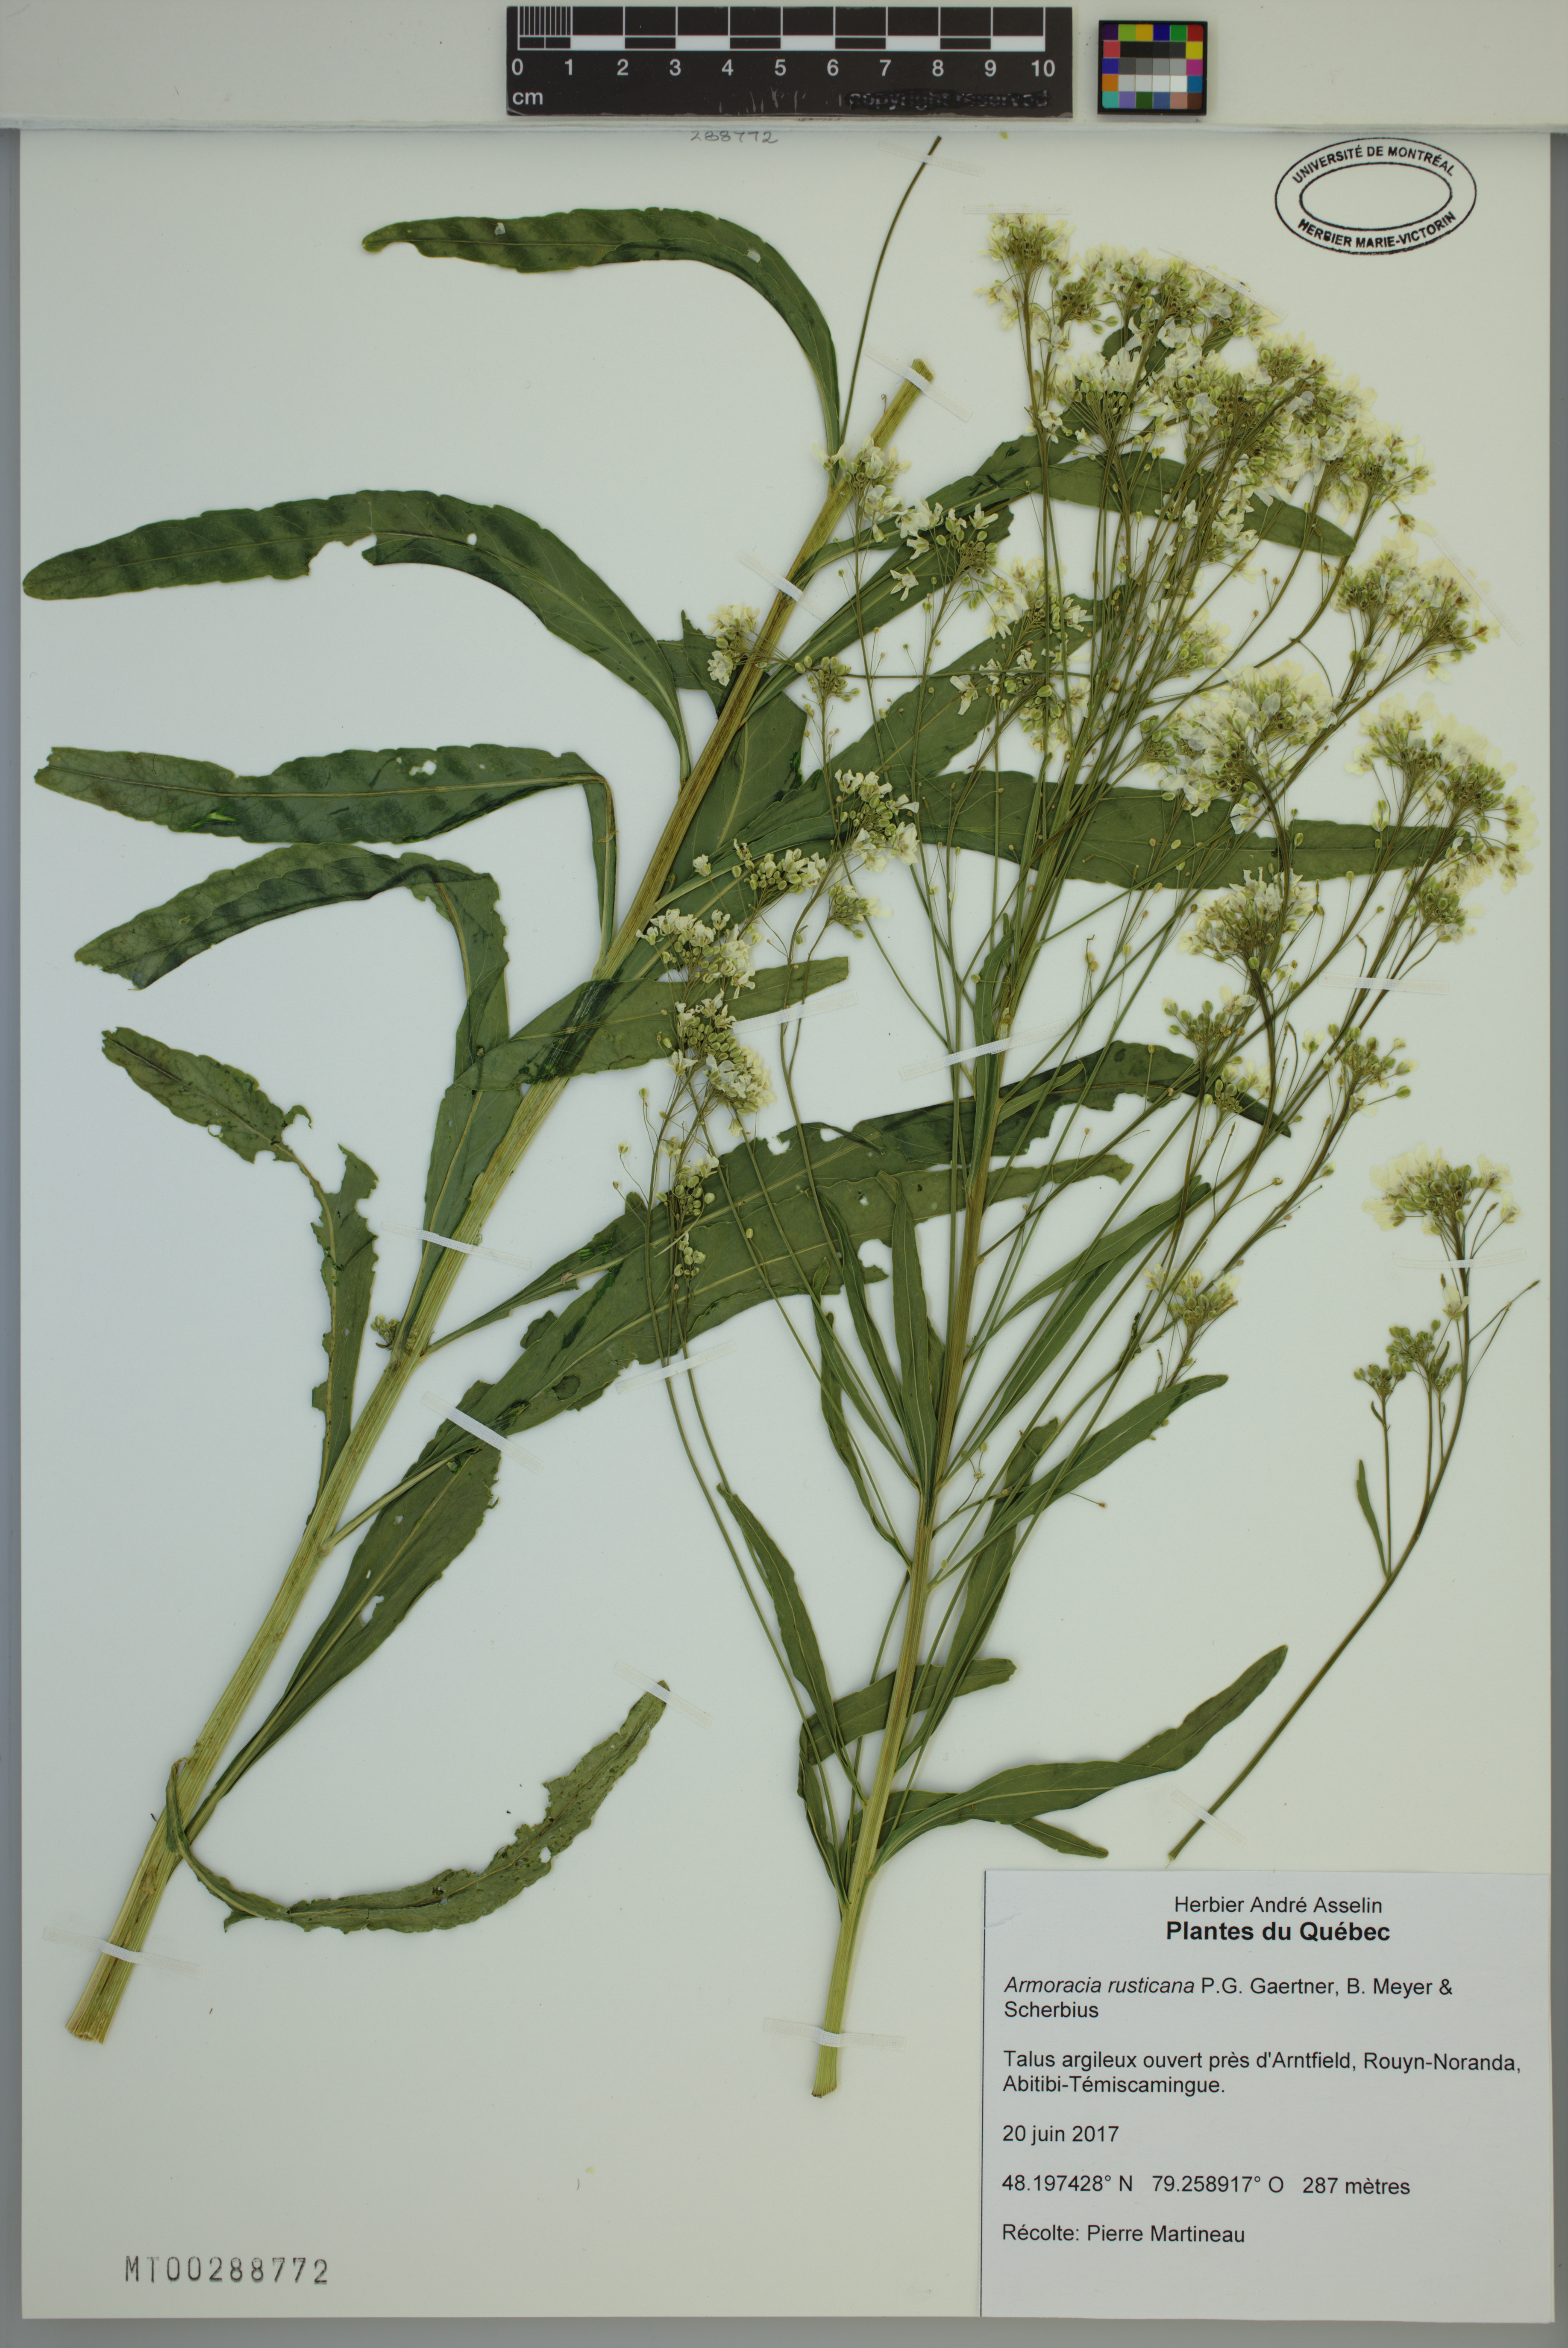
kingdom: Plantae
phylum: Tracheophyta
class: Magnoliopsida
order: Brassicales
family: Brassicaceae
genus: Armoracia
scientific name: Armoracia rusticana
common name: Horseradish
